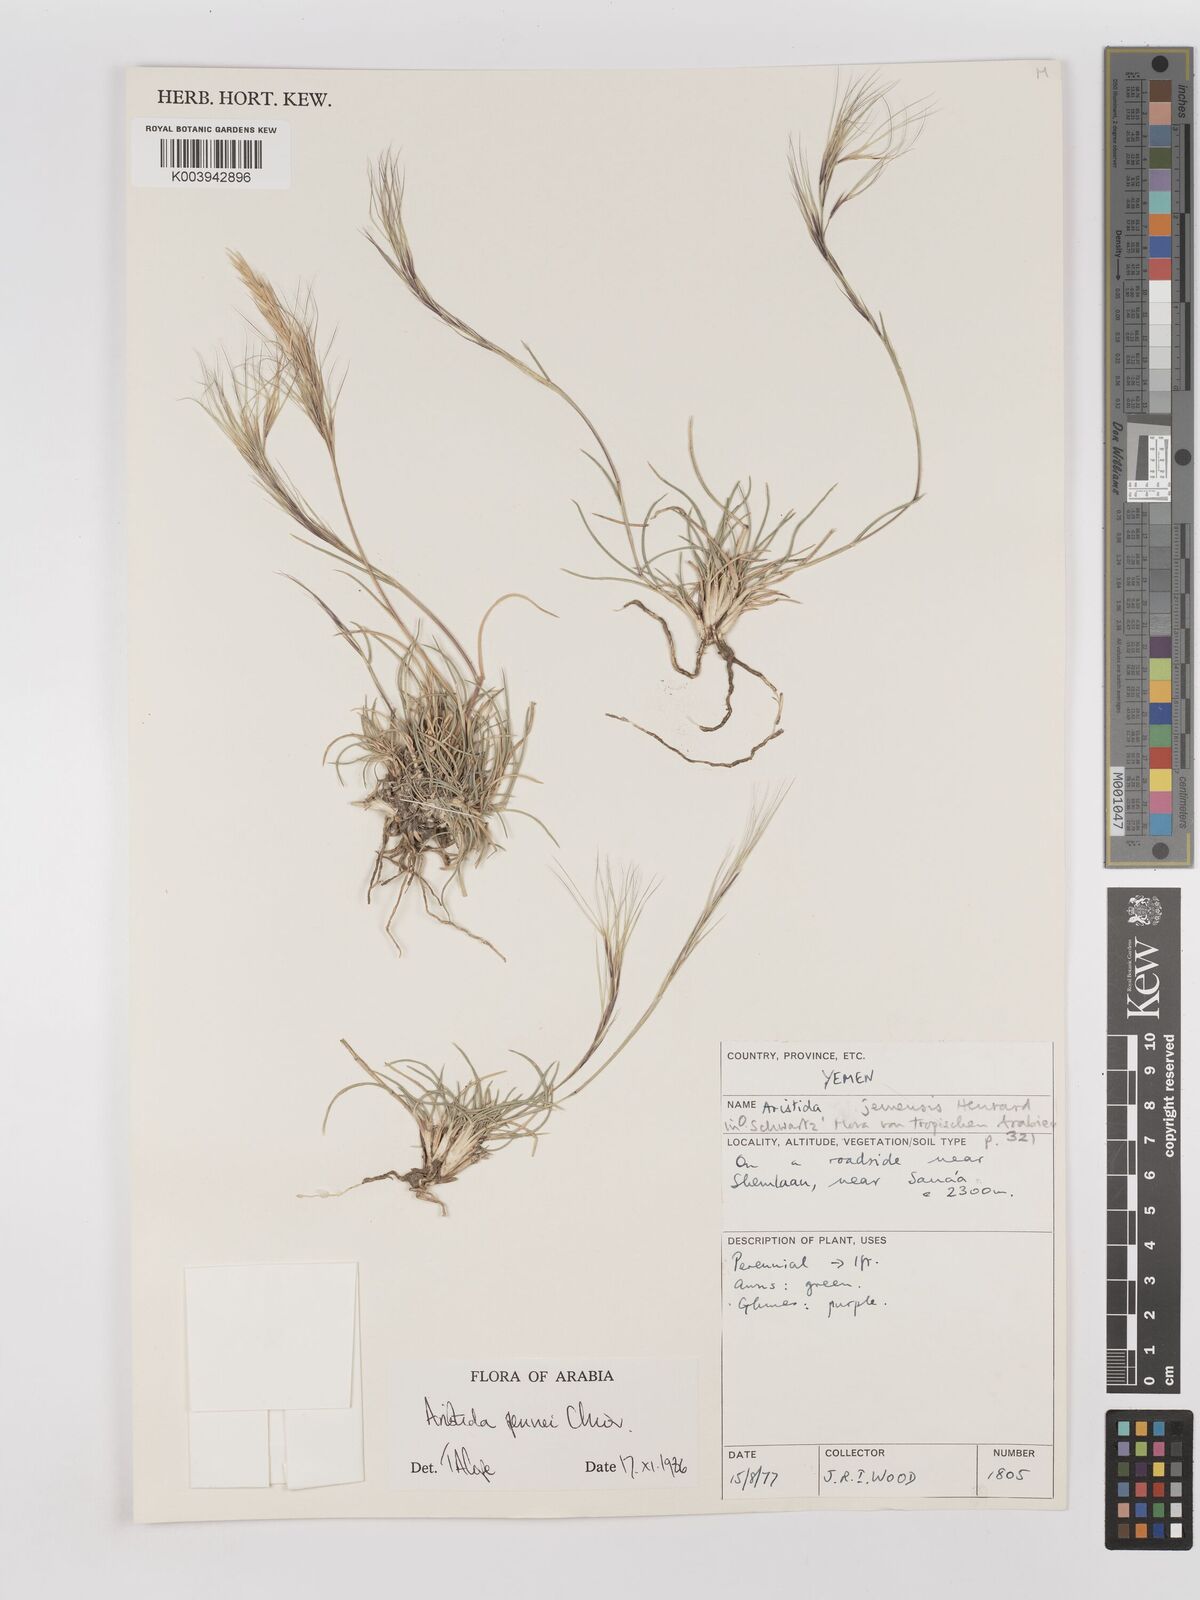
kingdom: Plantae
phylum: Tracheophyta
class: Liliopsida
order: Poales
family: Poaceae
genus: Aristida
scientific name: Aristida pennei
